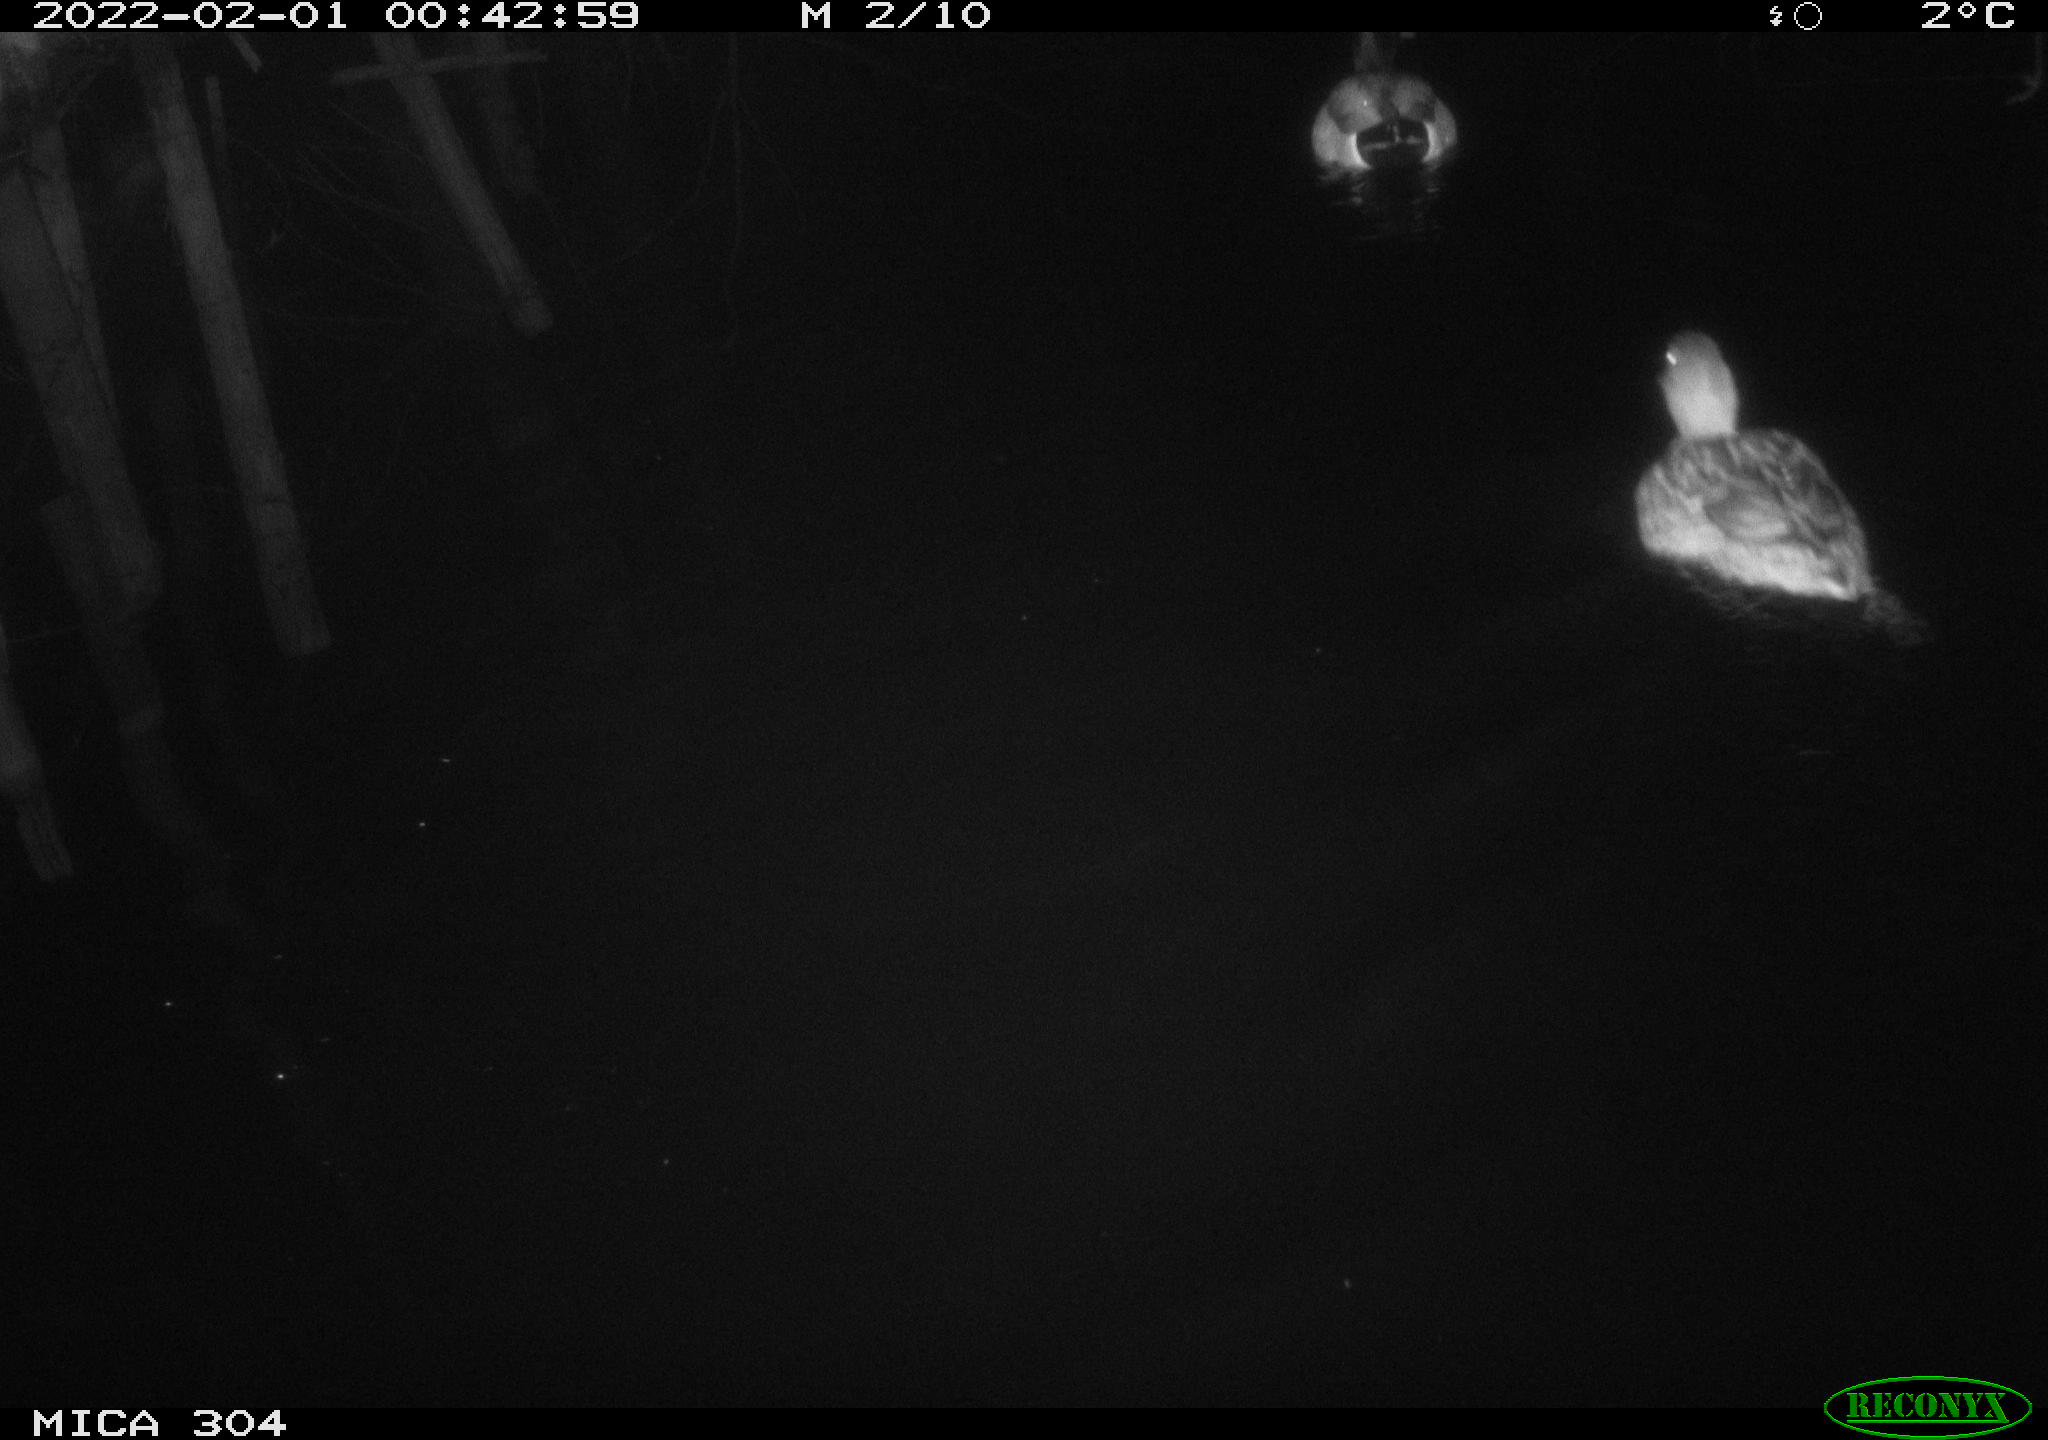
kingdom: Animalia
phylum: Chordata
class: Aves
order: Anseriformes
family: Anatidae
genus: Anas
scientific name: Anas
